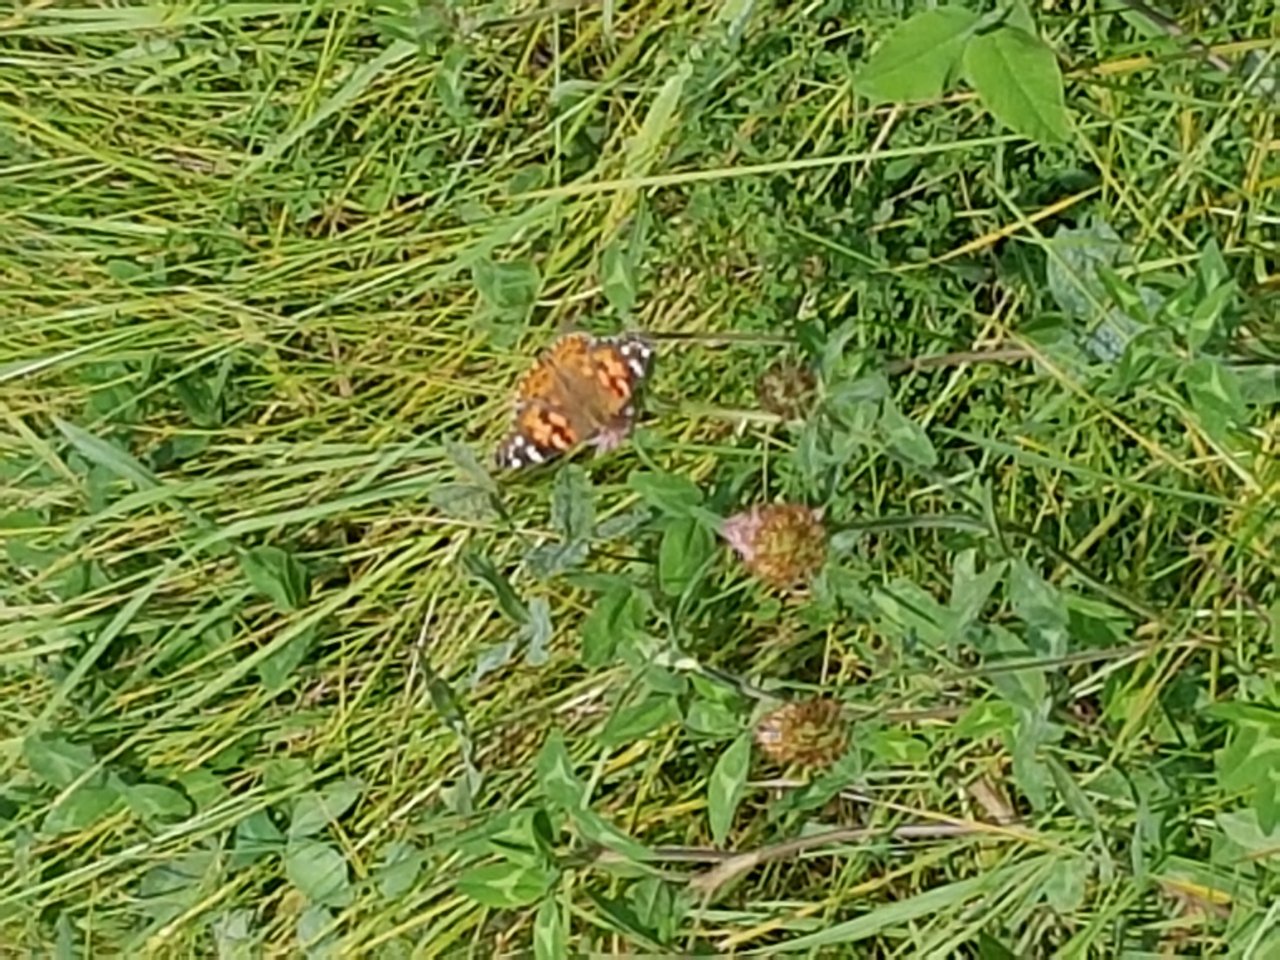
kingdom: Animalia
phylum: Arthropoda
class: Insecta
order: Lepidoptera
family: Nymphalidae
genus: Vanessa
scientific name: Vanessa cardui
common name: Painted Lady
